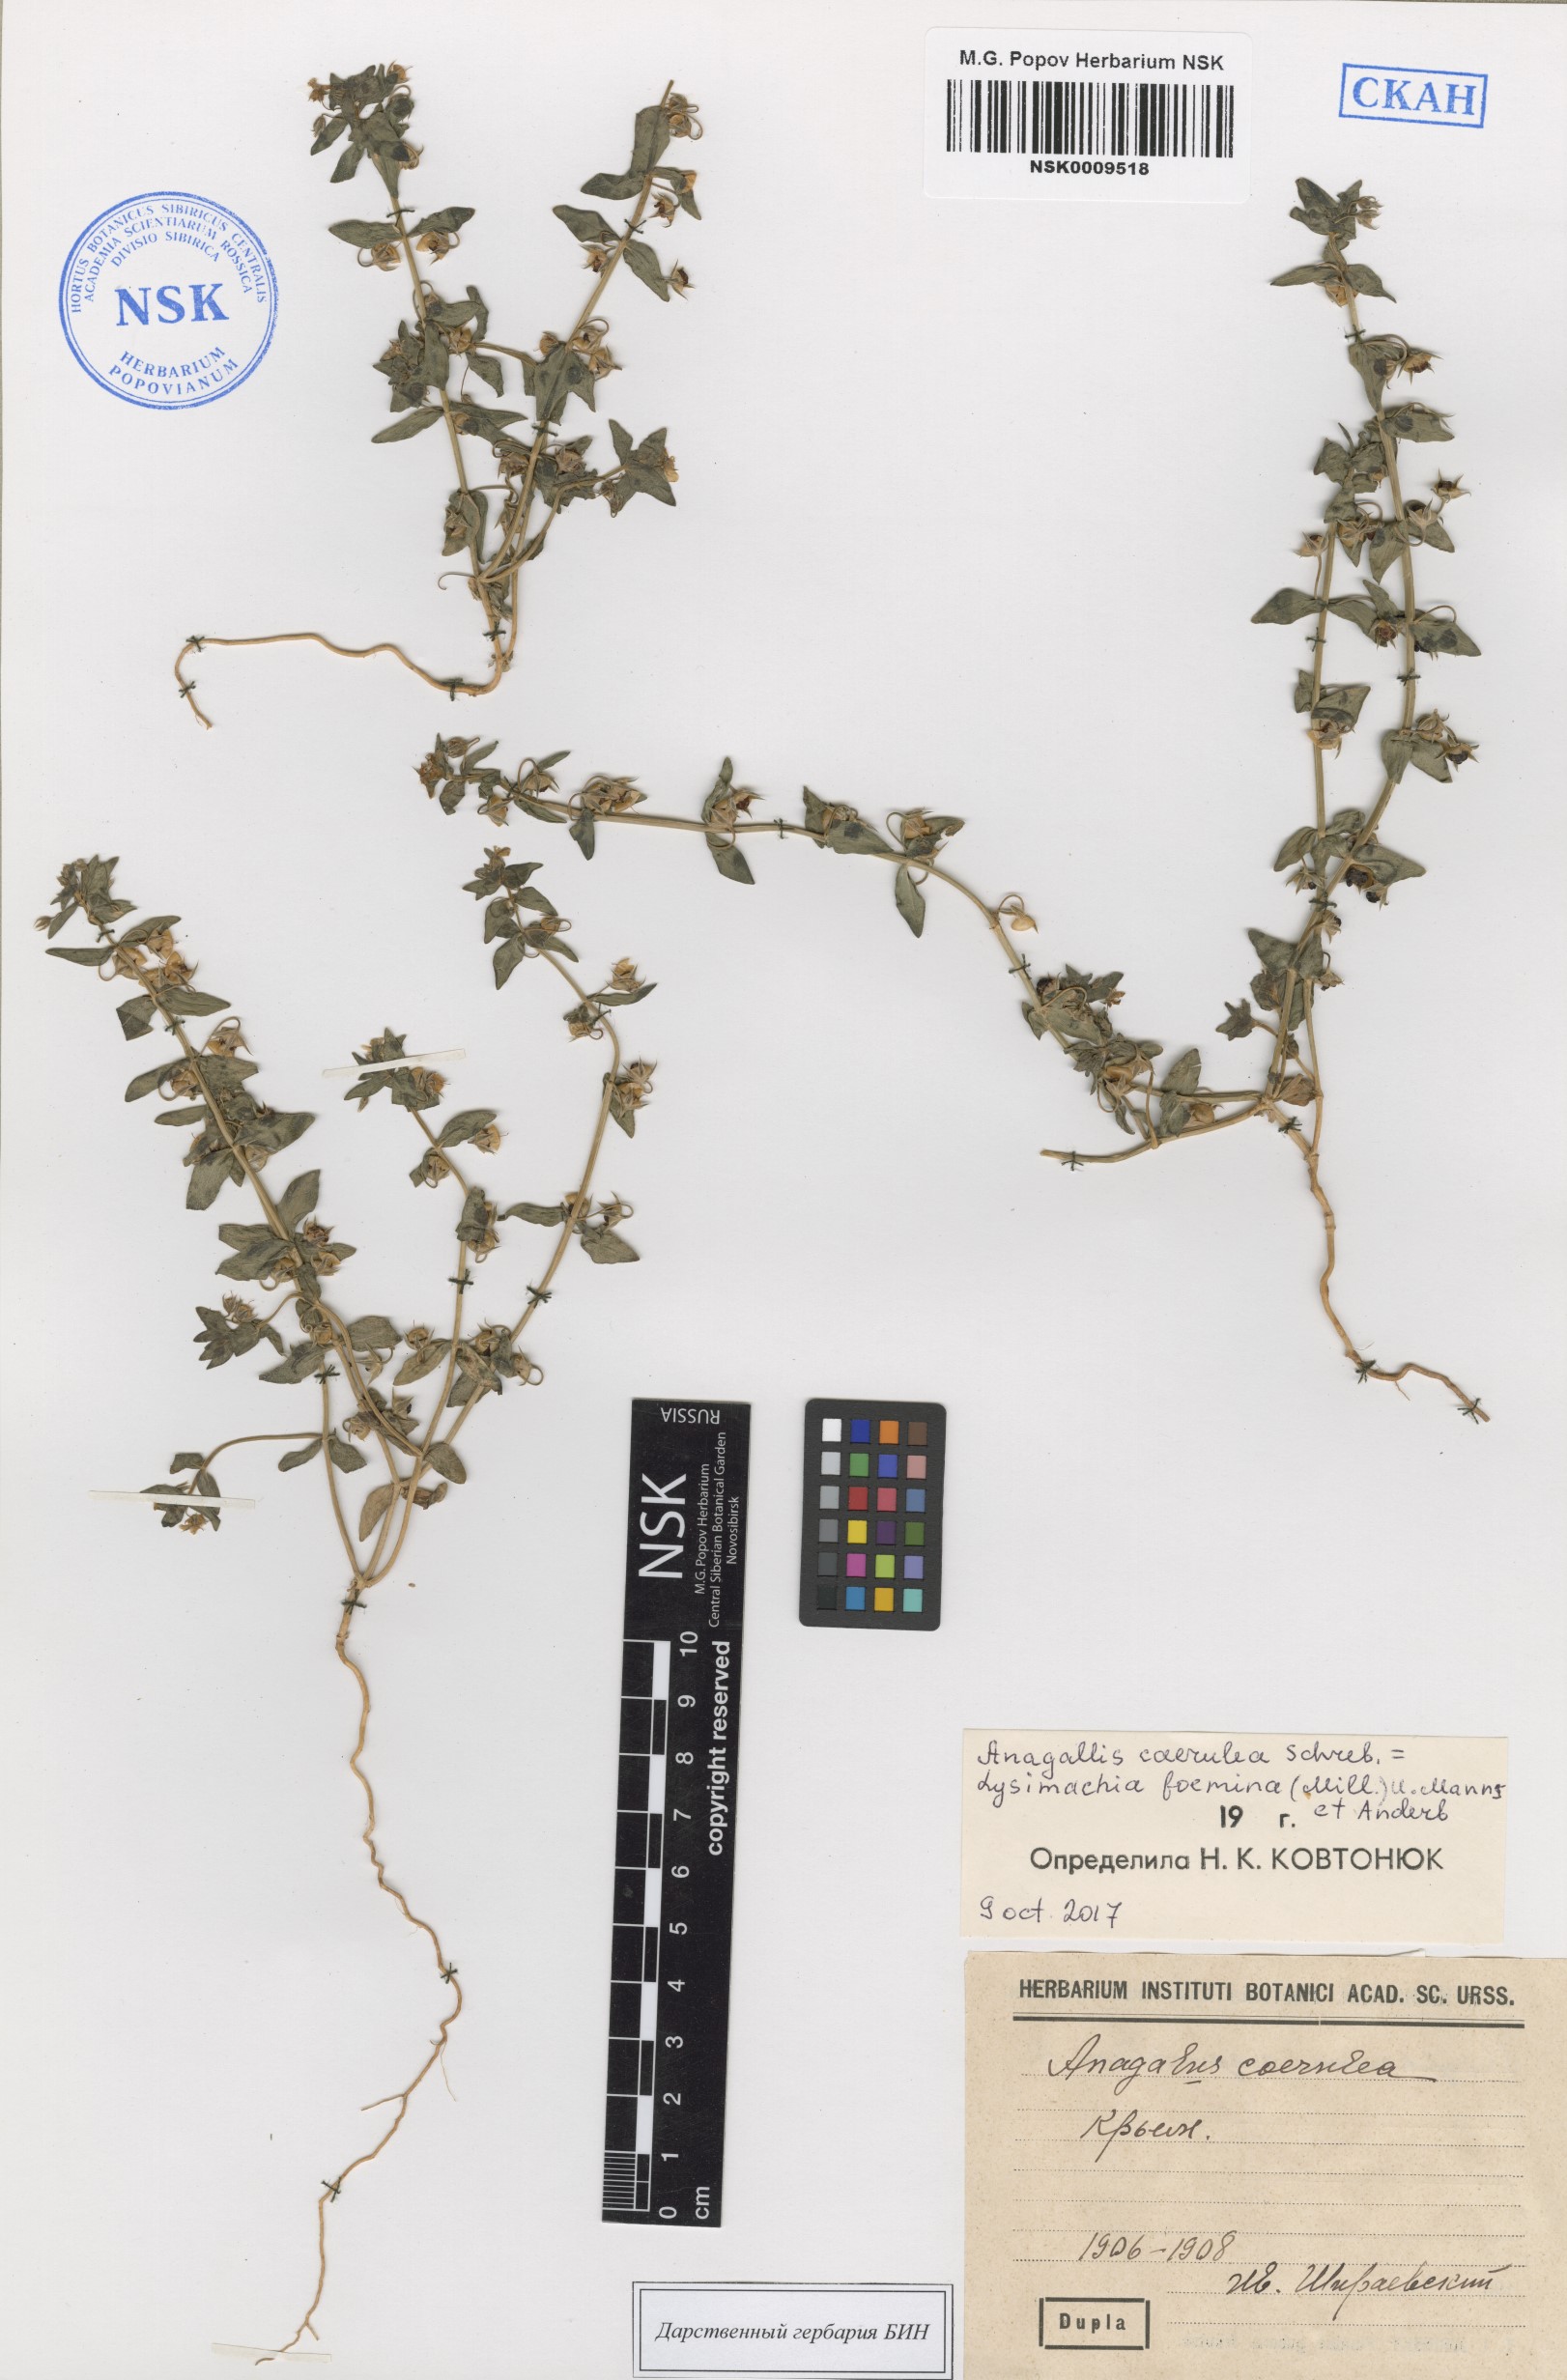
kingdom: Plantae
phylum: Tracheophyta
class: Magnoliopsida
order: Ericales
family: Primulaceae
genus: Lysimachia
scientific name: Lysimachia loeflingii
